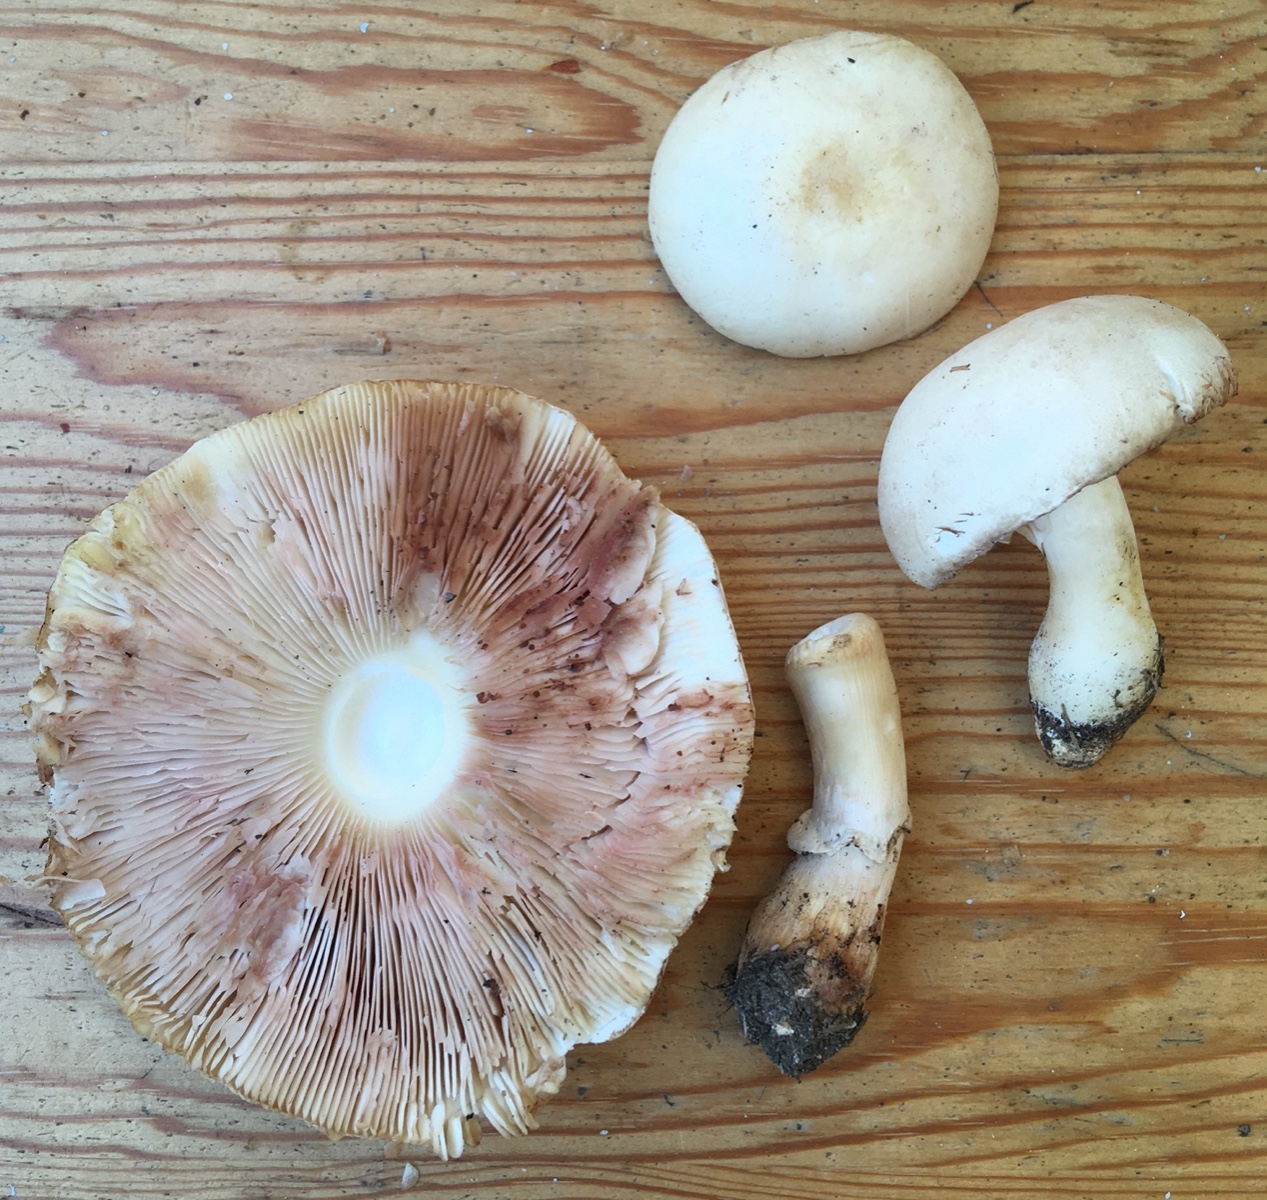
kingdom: Fungi
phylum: Basidiomycota
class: Agaricomycetes
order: Agaricales
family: Agaricaceae
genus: Leucoagaricus
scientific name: Leucoagaricus leucothites
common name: rosabladet silkehat
